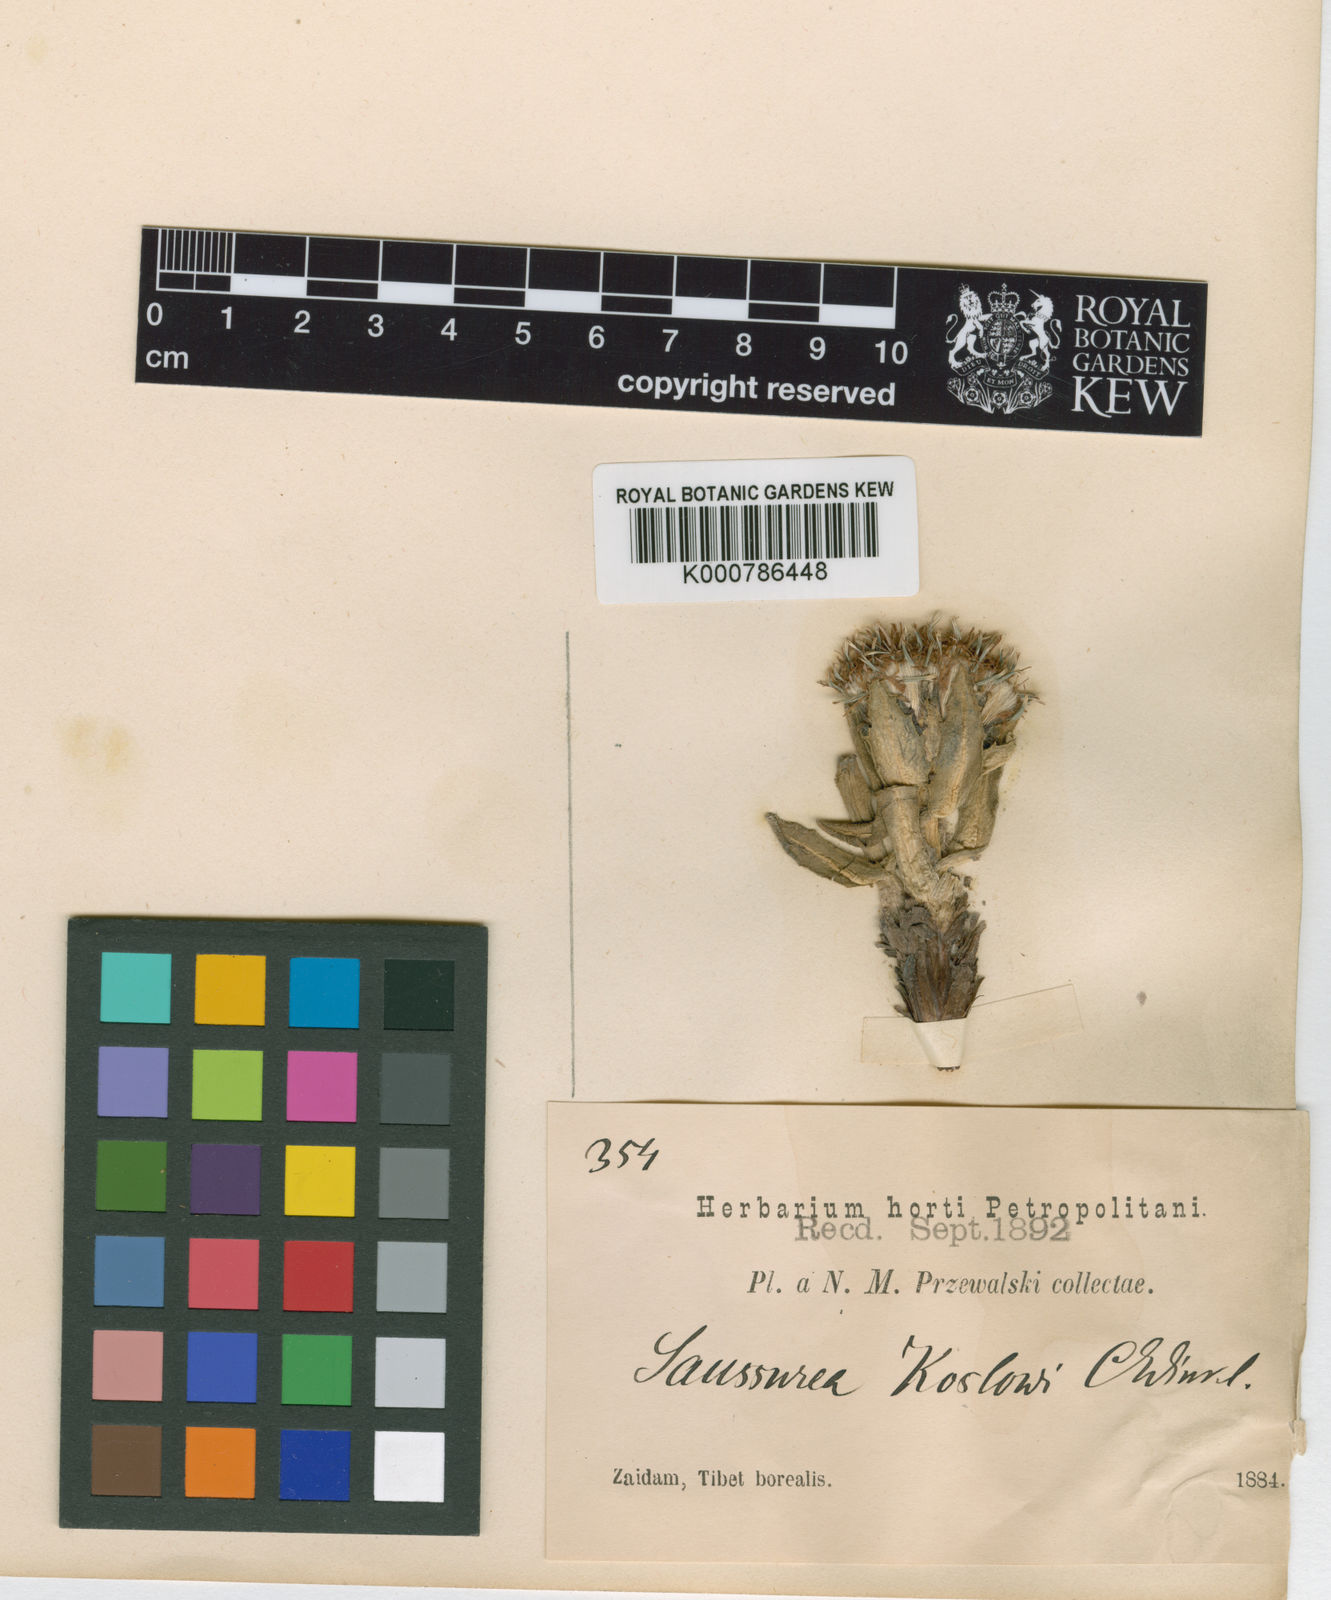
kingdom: Plantae
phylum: Tracheophyta
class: Magnoliopsida
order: Asterales
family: Asteraceae
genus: Saussurea
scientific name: Saussurea apus
